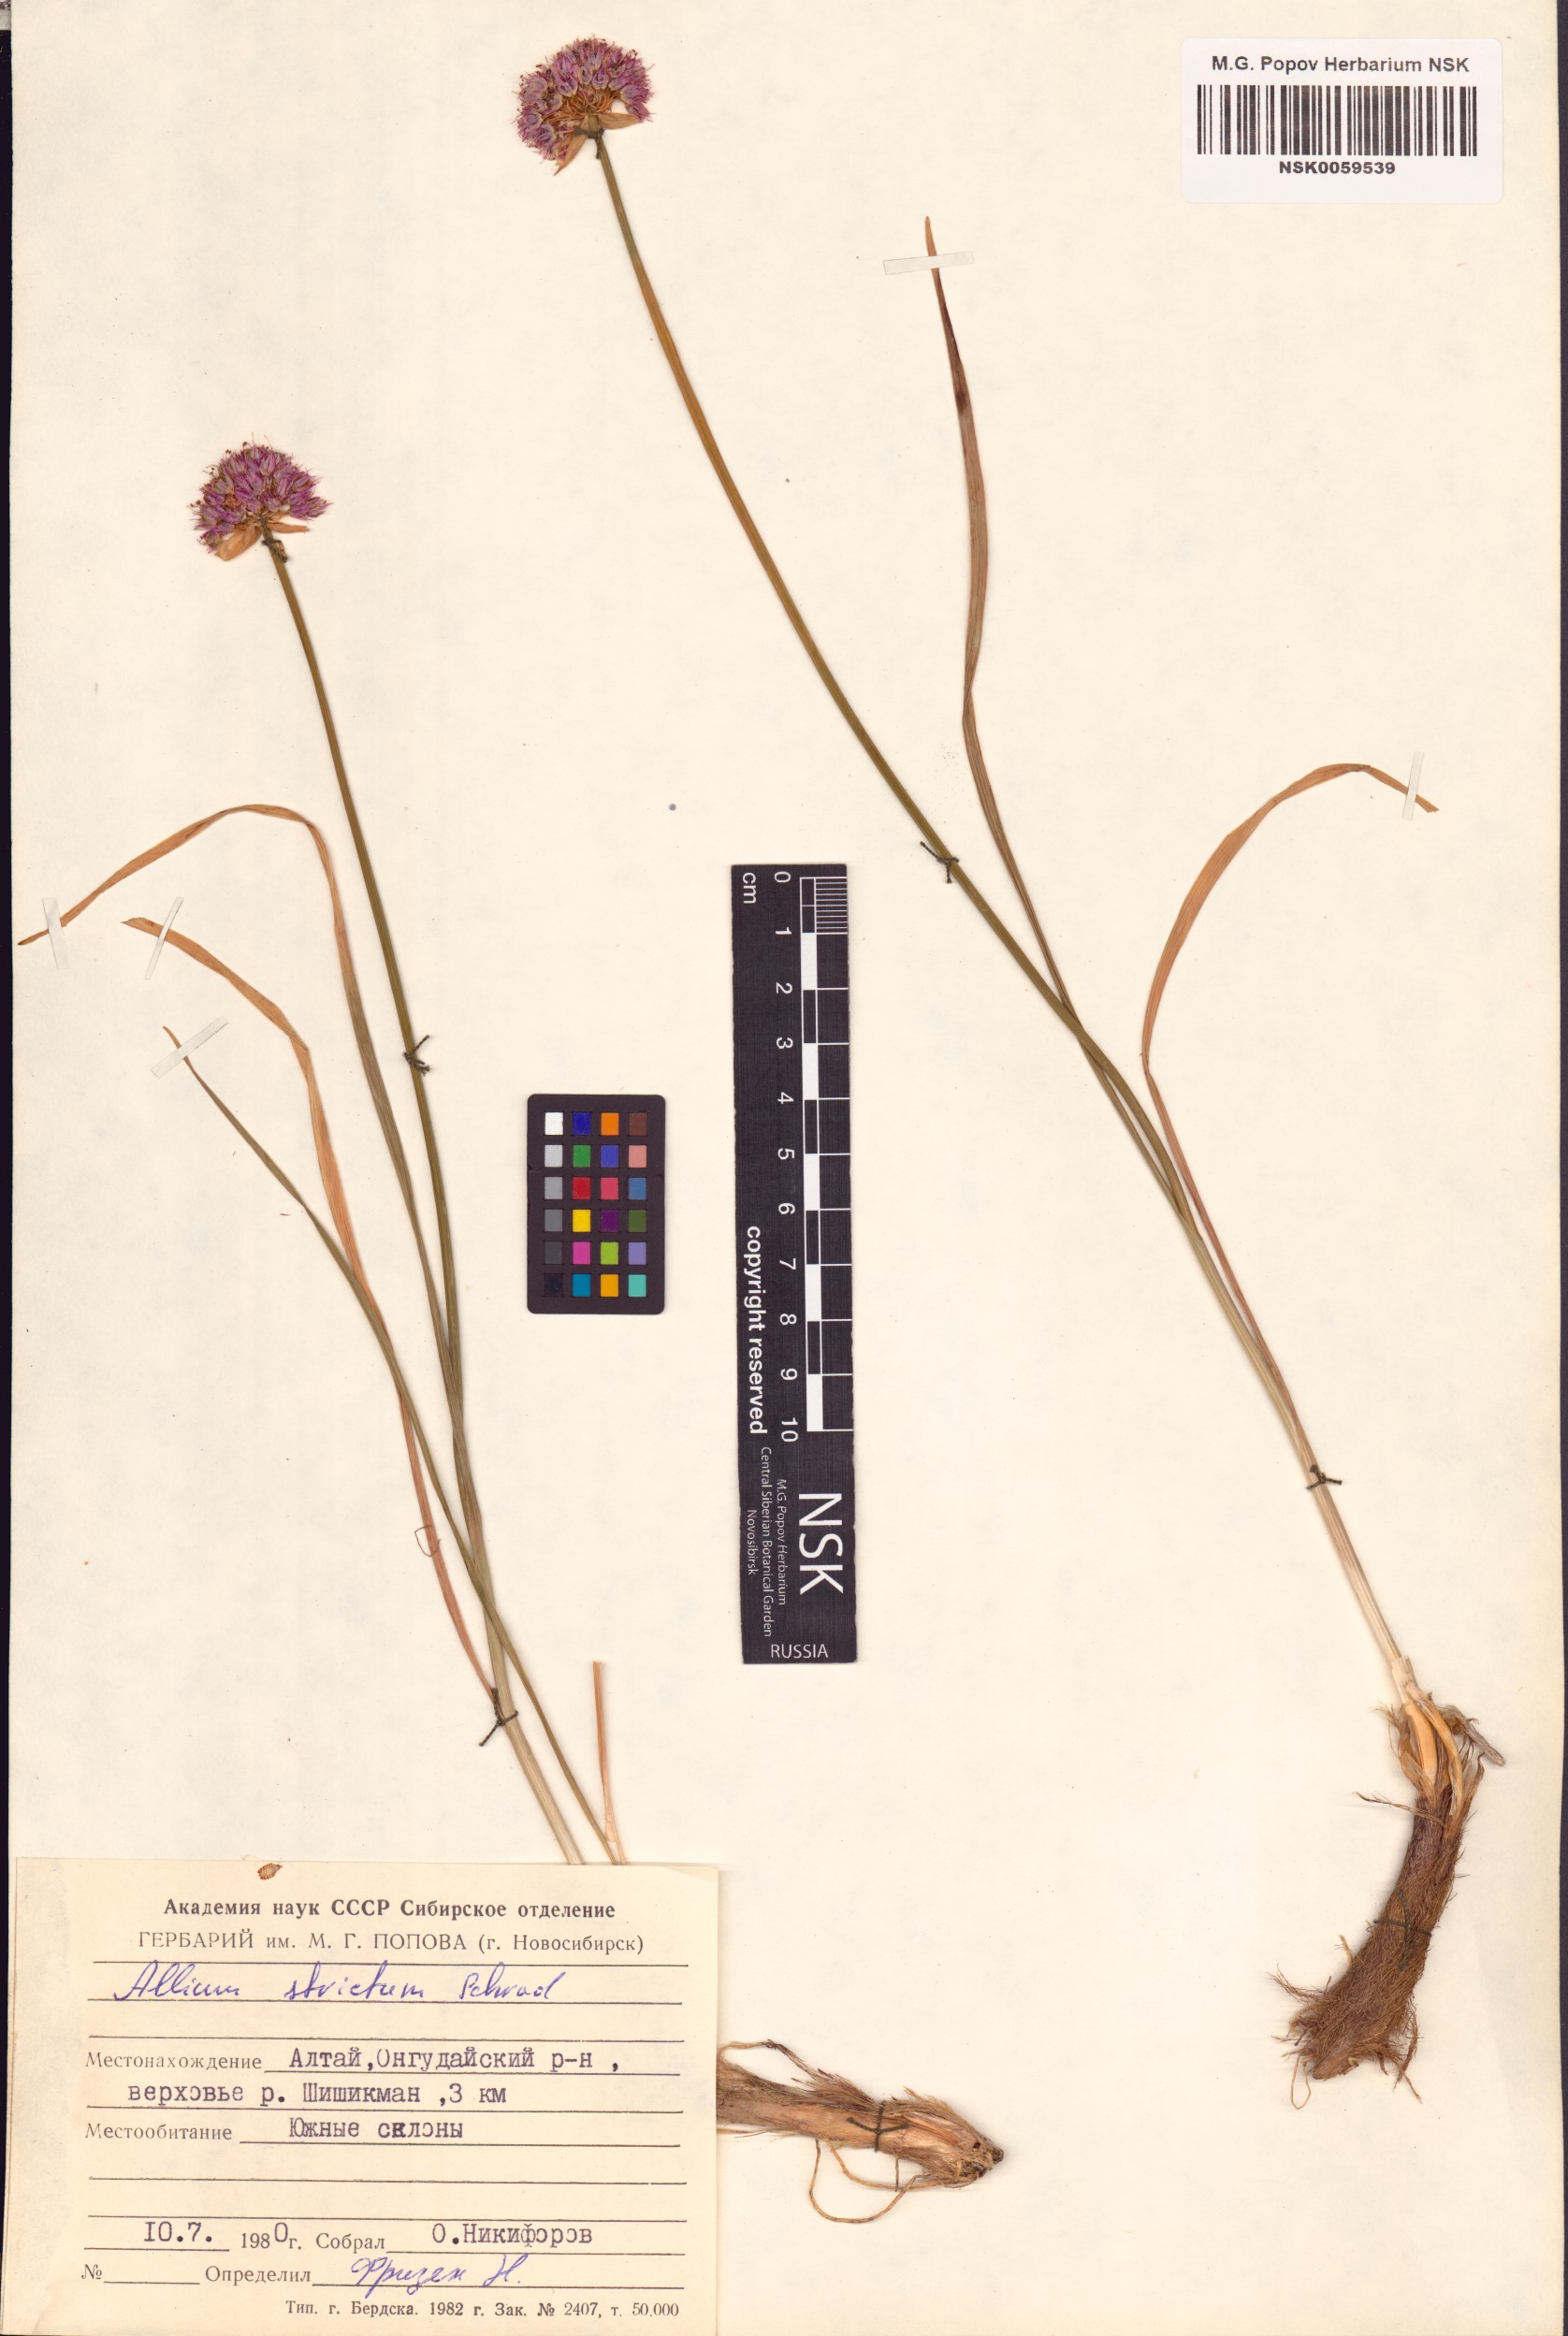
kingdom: Plantae
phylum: Tracheophyta
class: Liliopsida
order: Asparagales
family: Amaryllidaceae
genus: Allium
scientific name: Allium strictum
